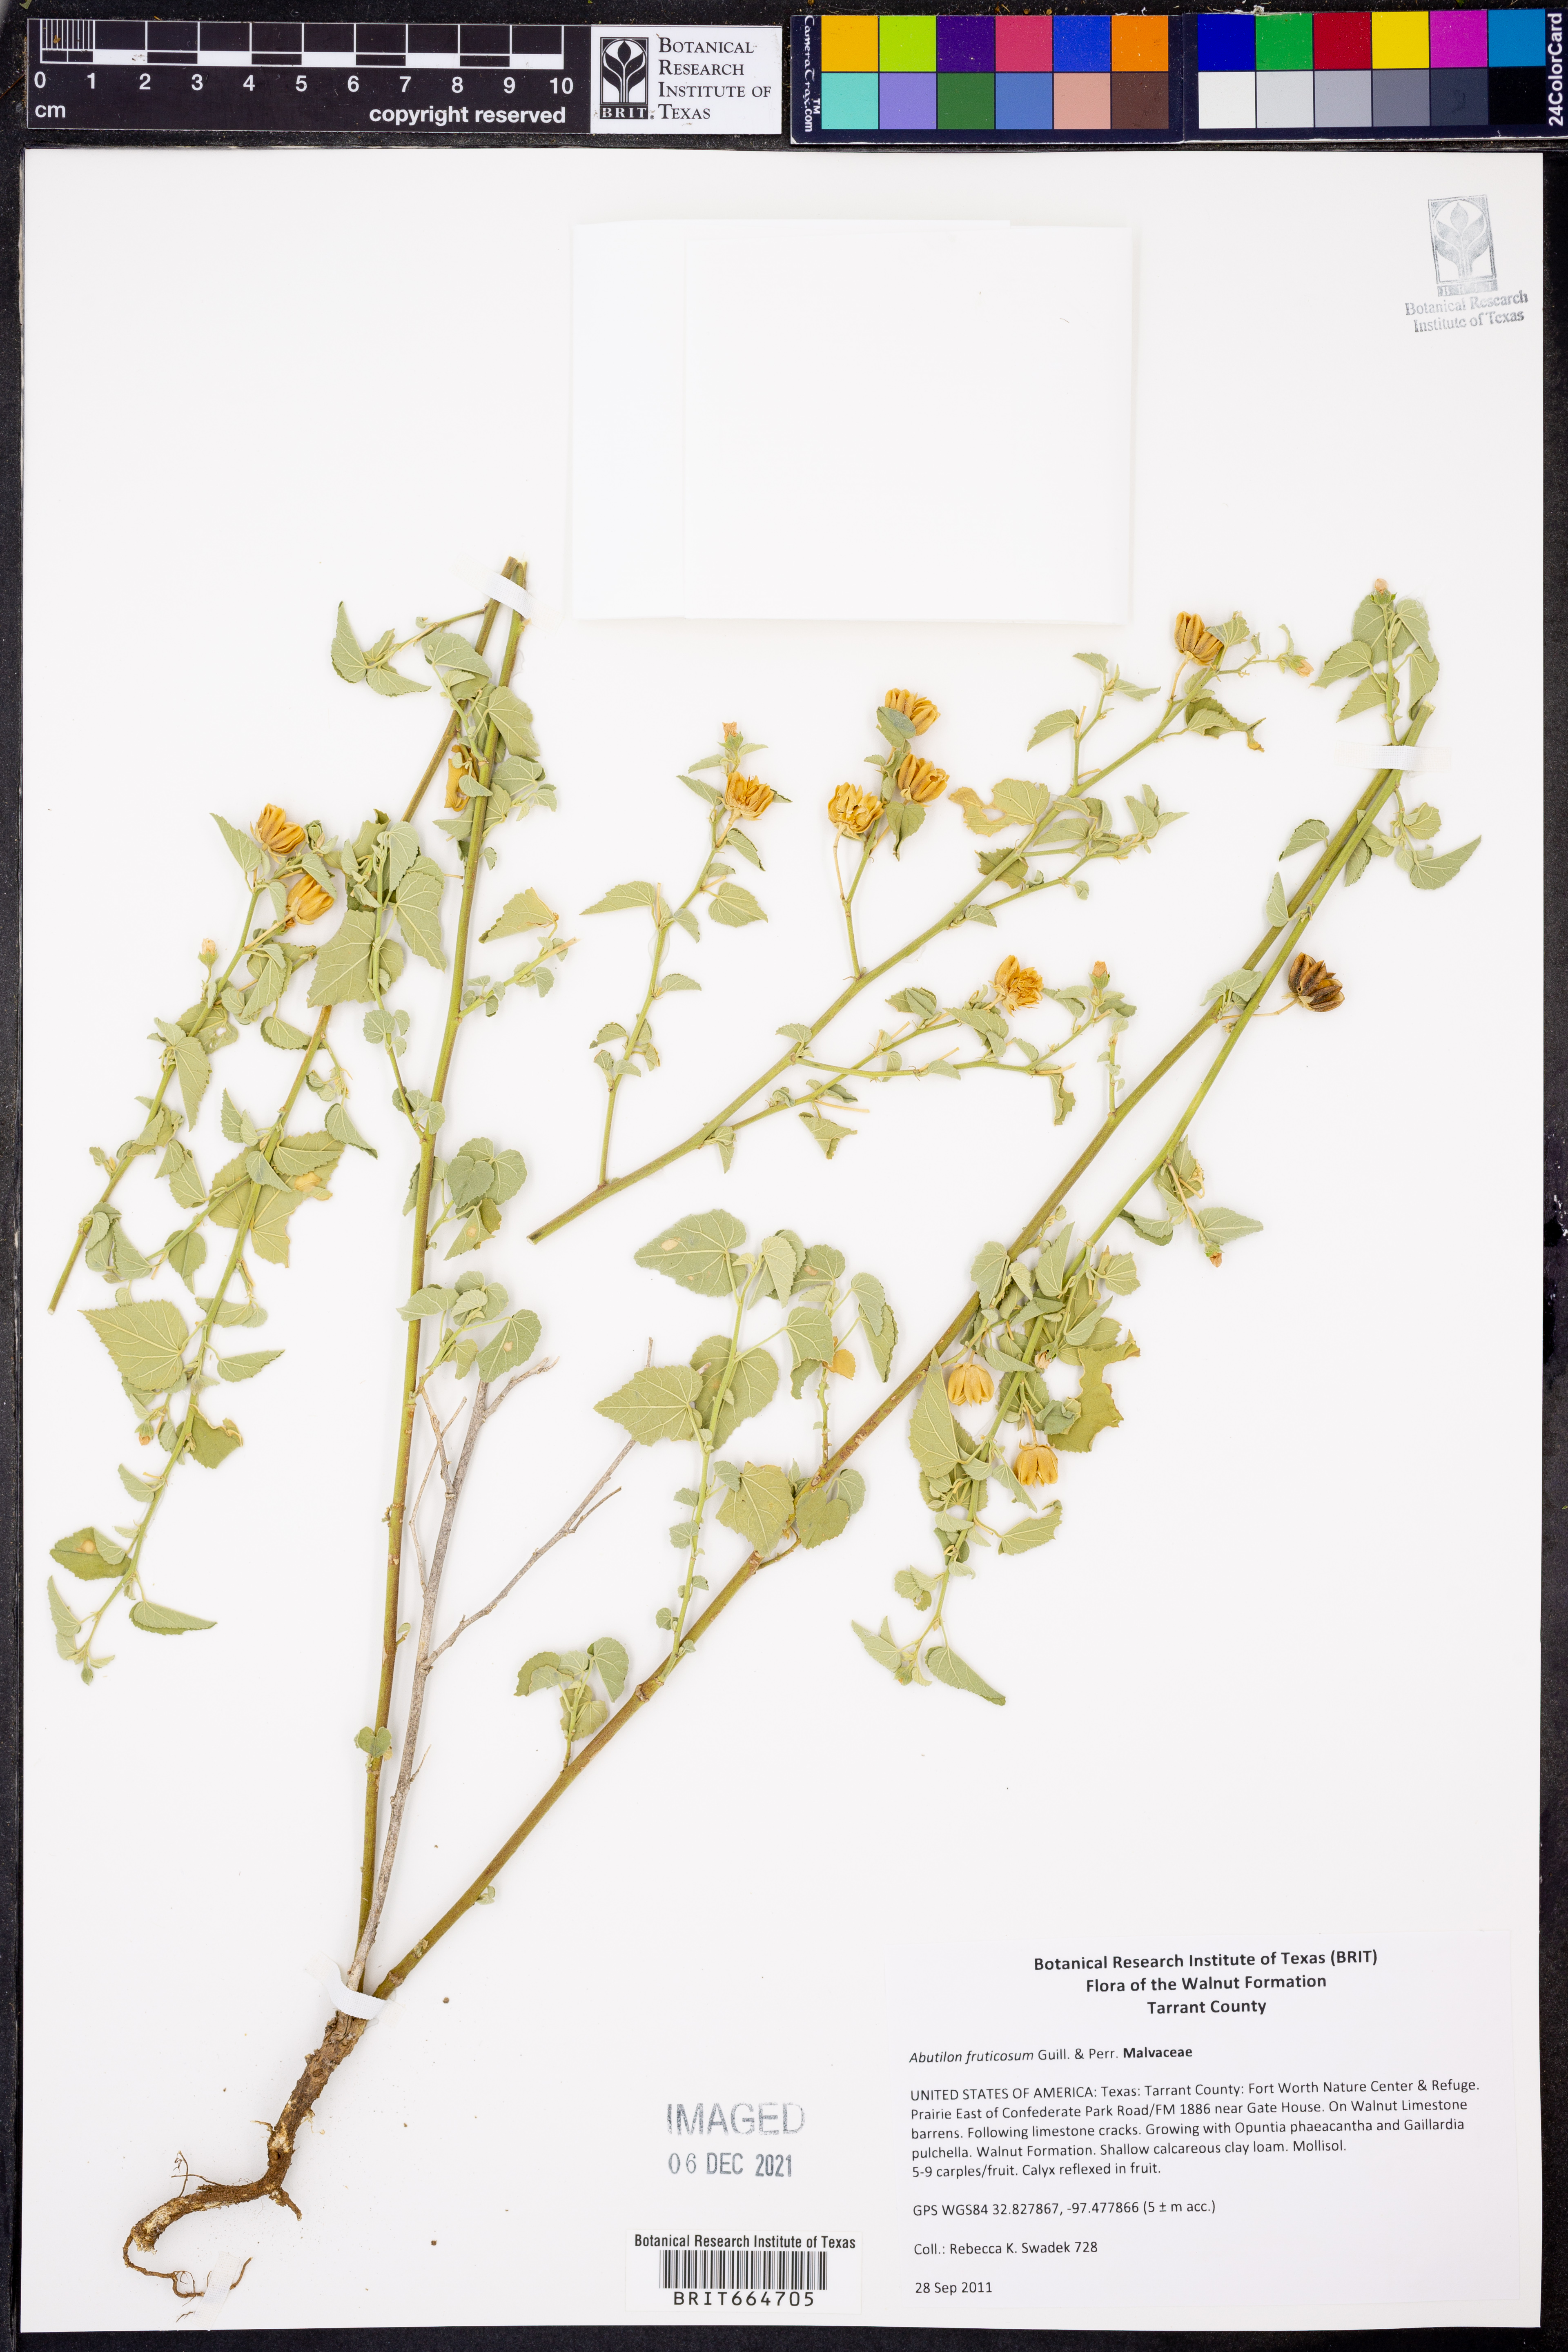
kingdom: Plantae
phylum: Tracheophyta
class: Magnoliopsida
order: Malvales
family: Malvaceae
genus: Abutilon
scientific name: Abutilon fruticosum
